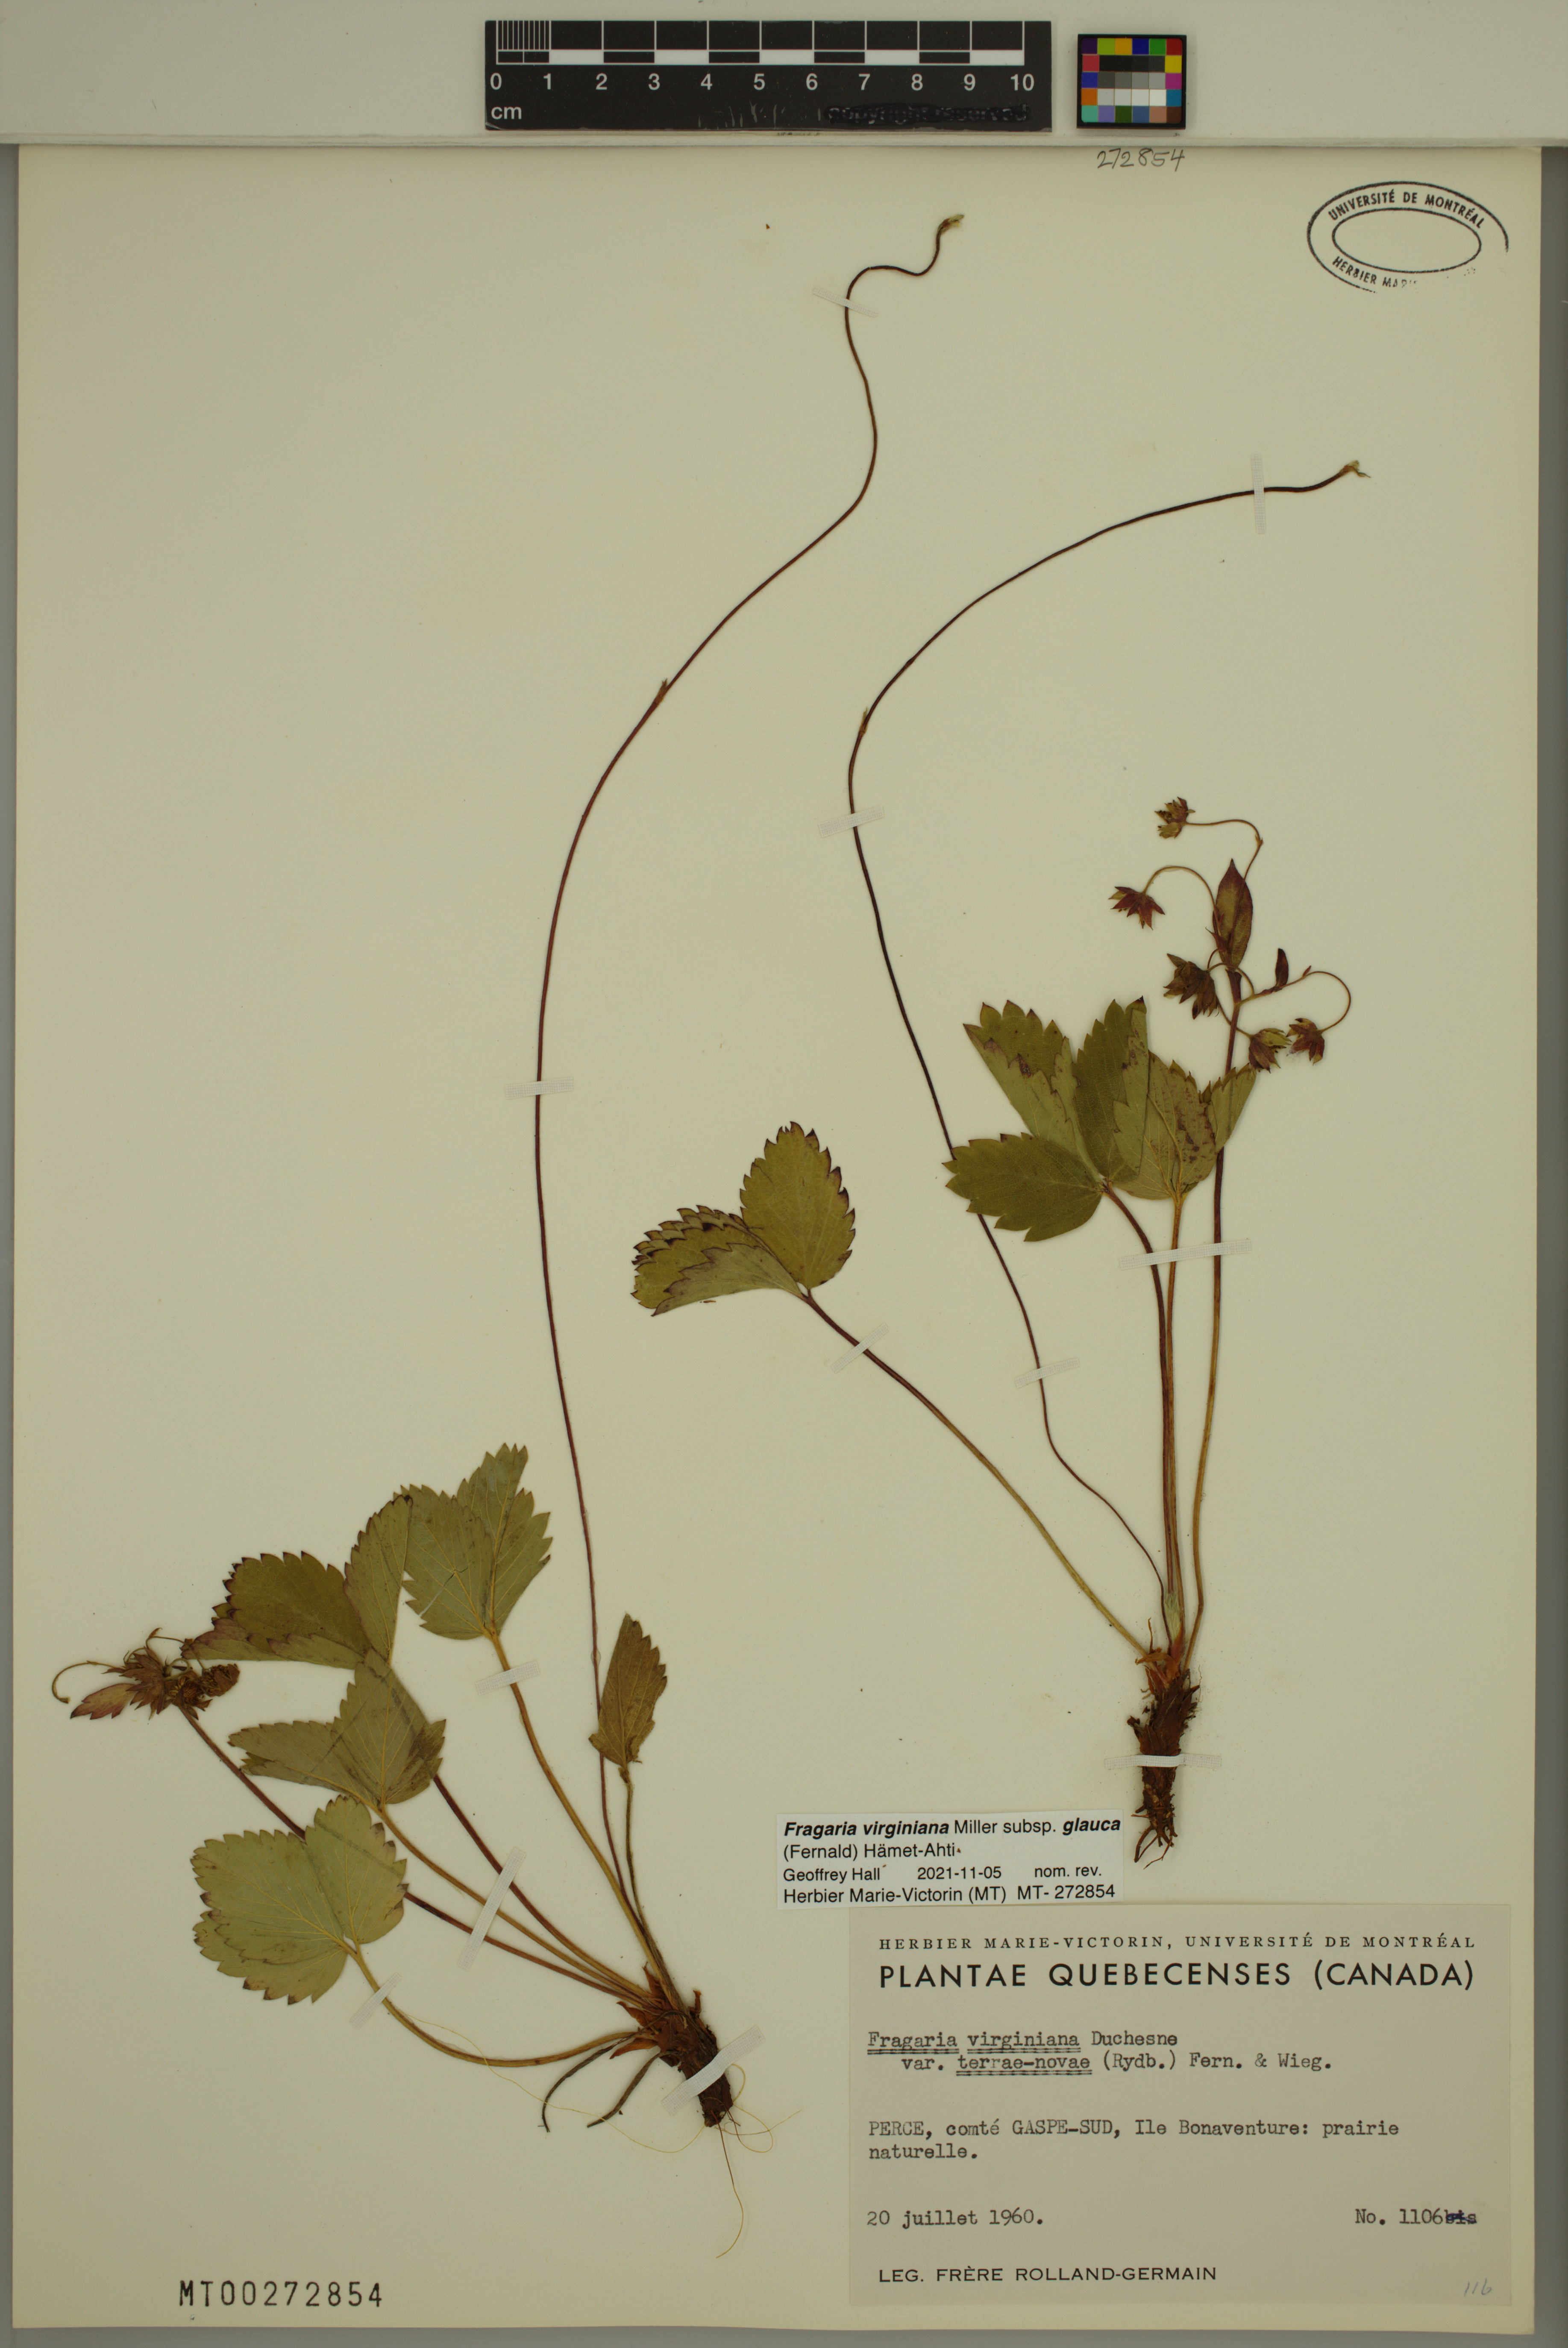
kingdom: Plantae
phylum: Tracheophyta
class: Magnoliopsida
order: Rosales
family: Rosaceae
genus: Fragaria
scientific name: Fragaria virginiana
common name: Thickleaved wild strawberry
